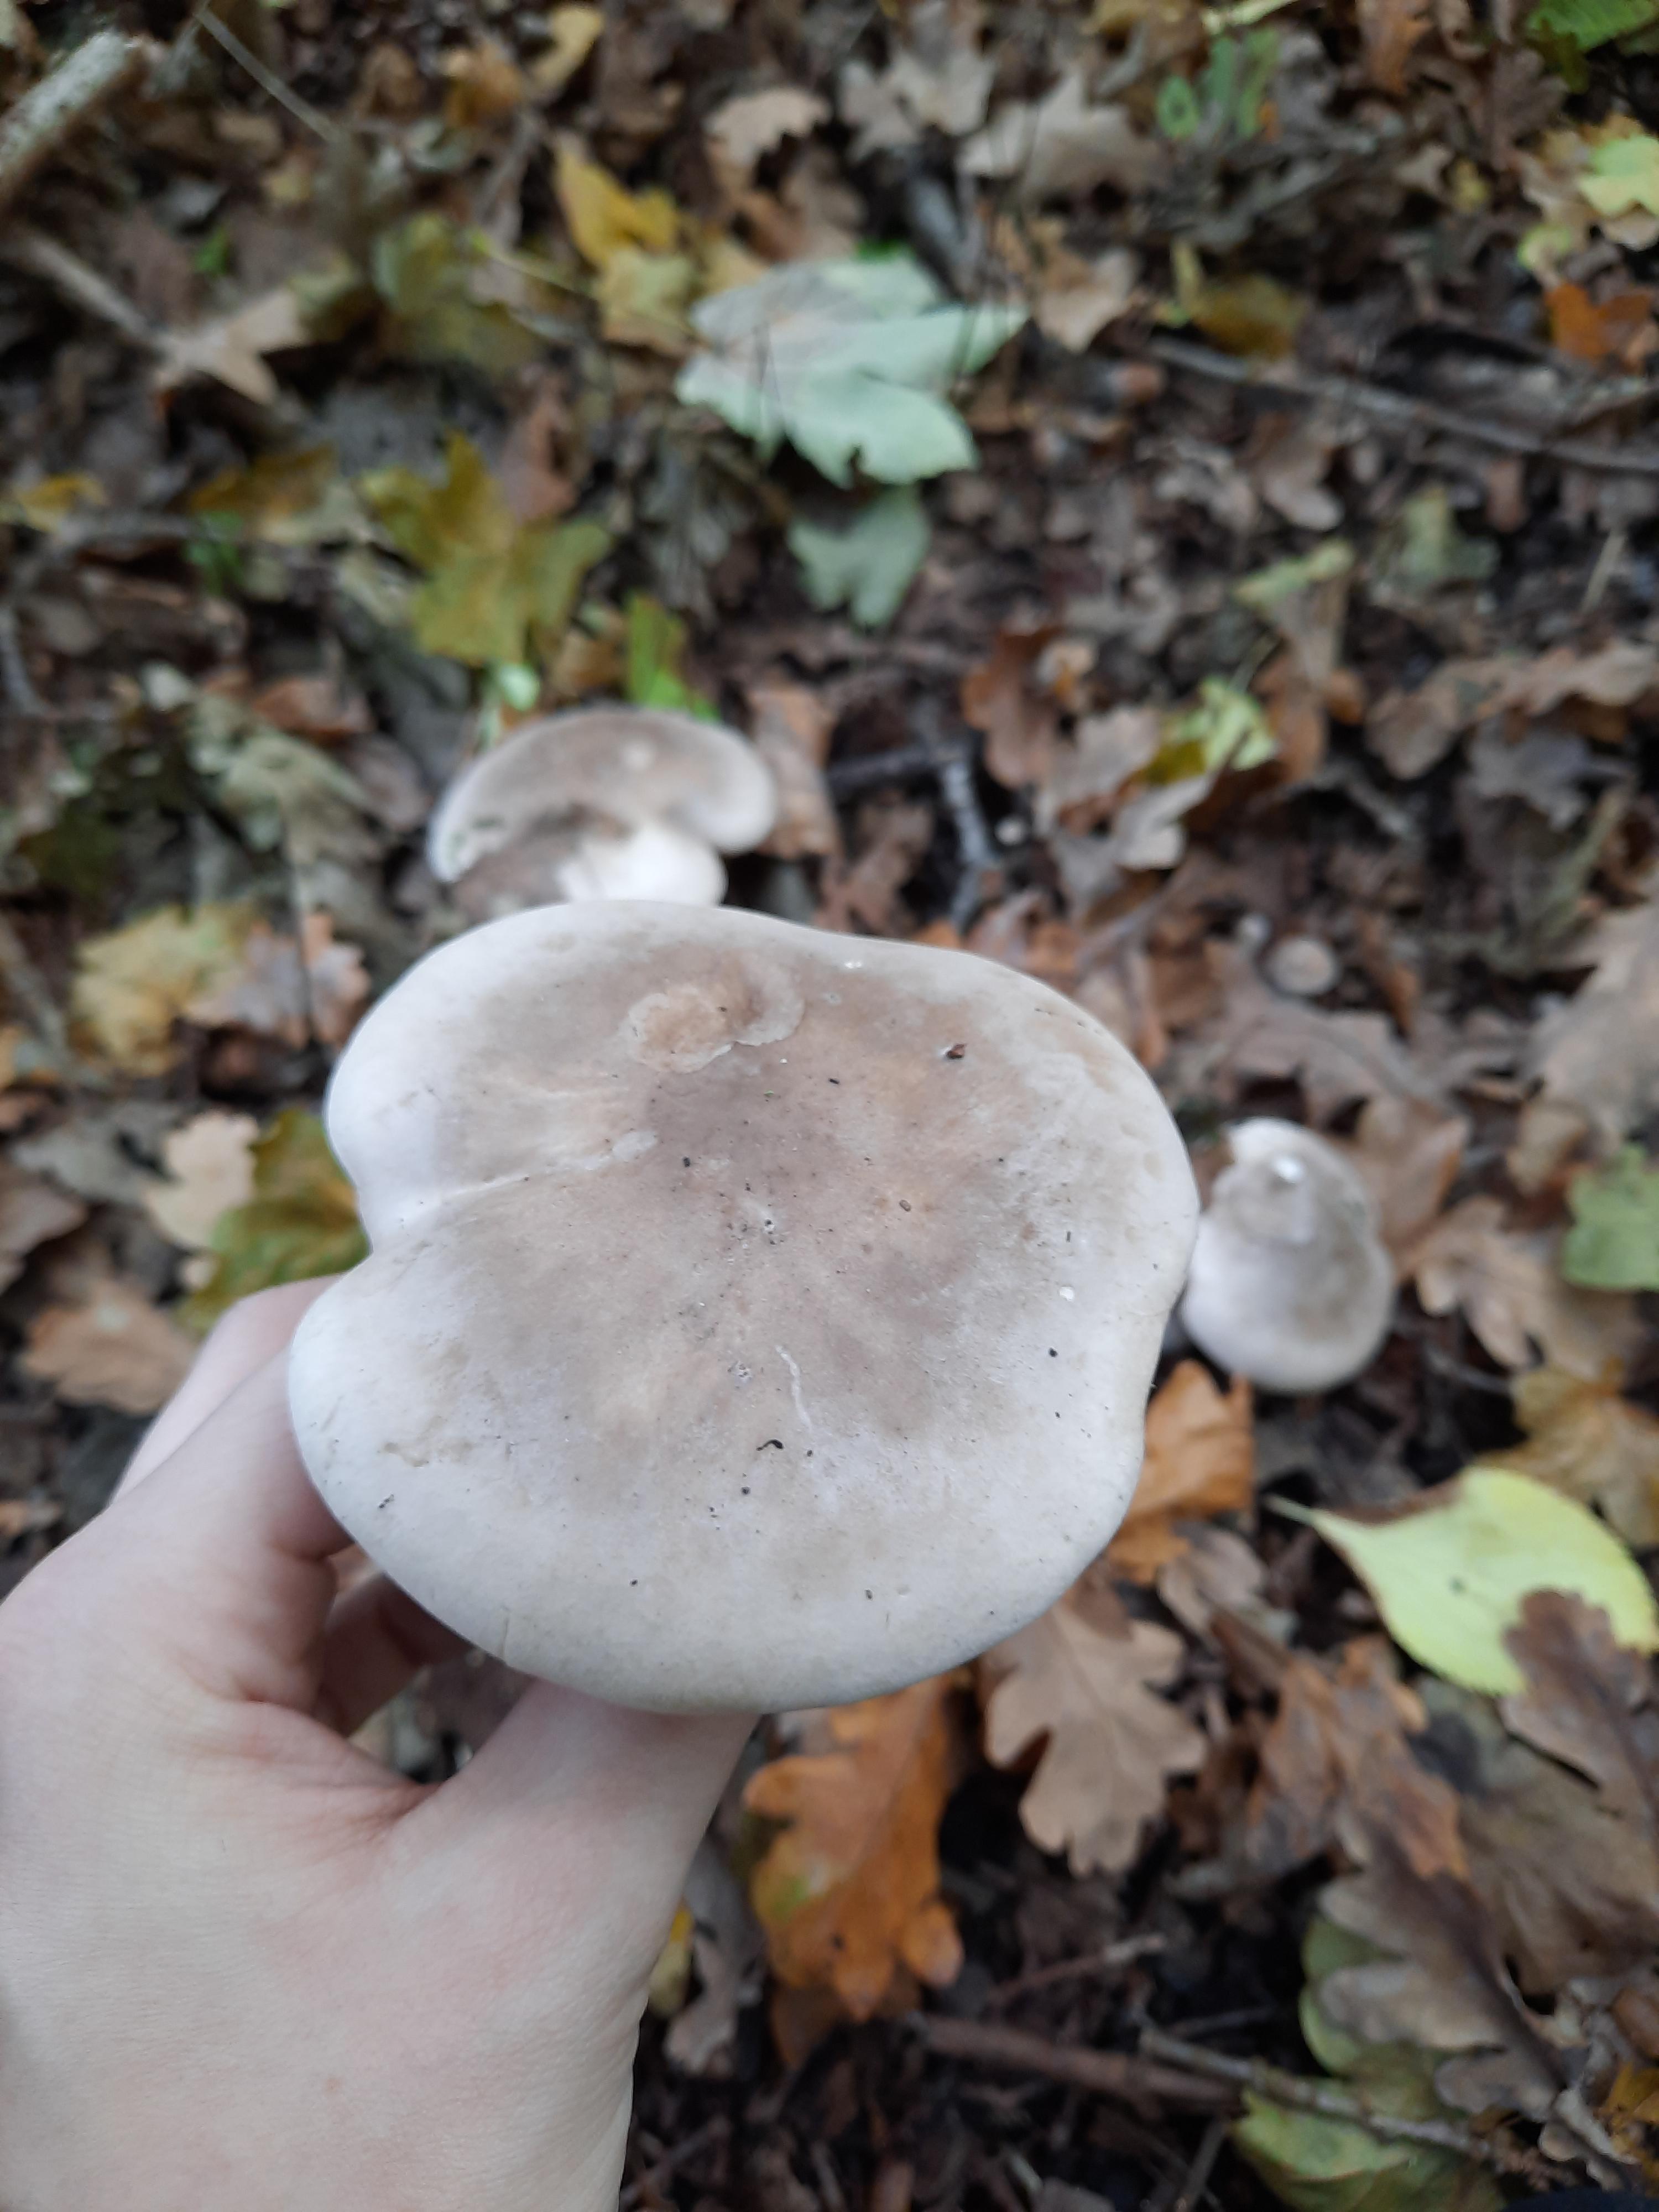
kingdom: Fungi
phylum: Basidiomycota
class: Agaricomycetes
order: Agaricales
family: Tricholomataceae
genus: Clitocybe
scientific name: Clitocybe nebularis
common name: tåge-tragthat
